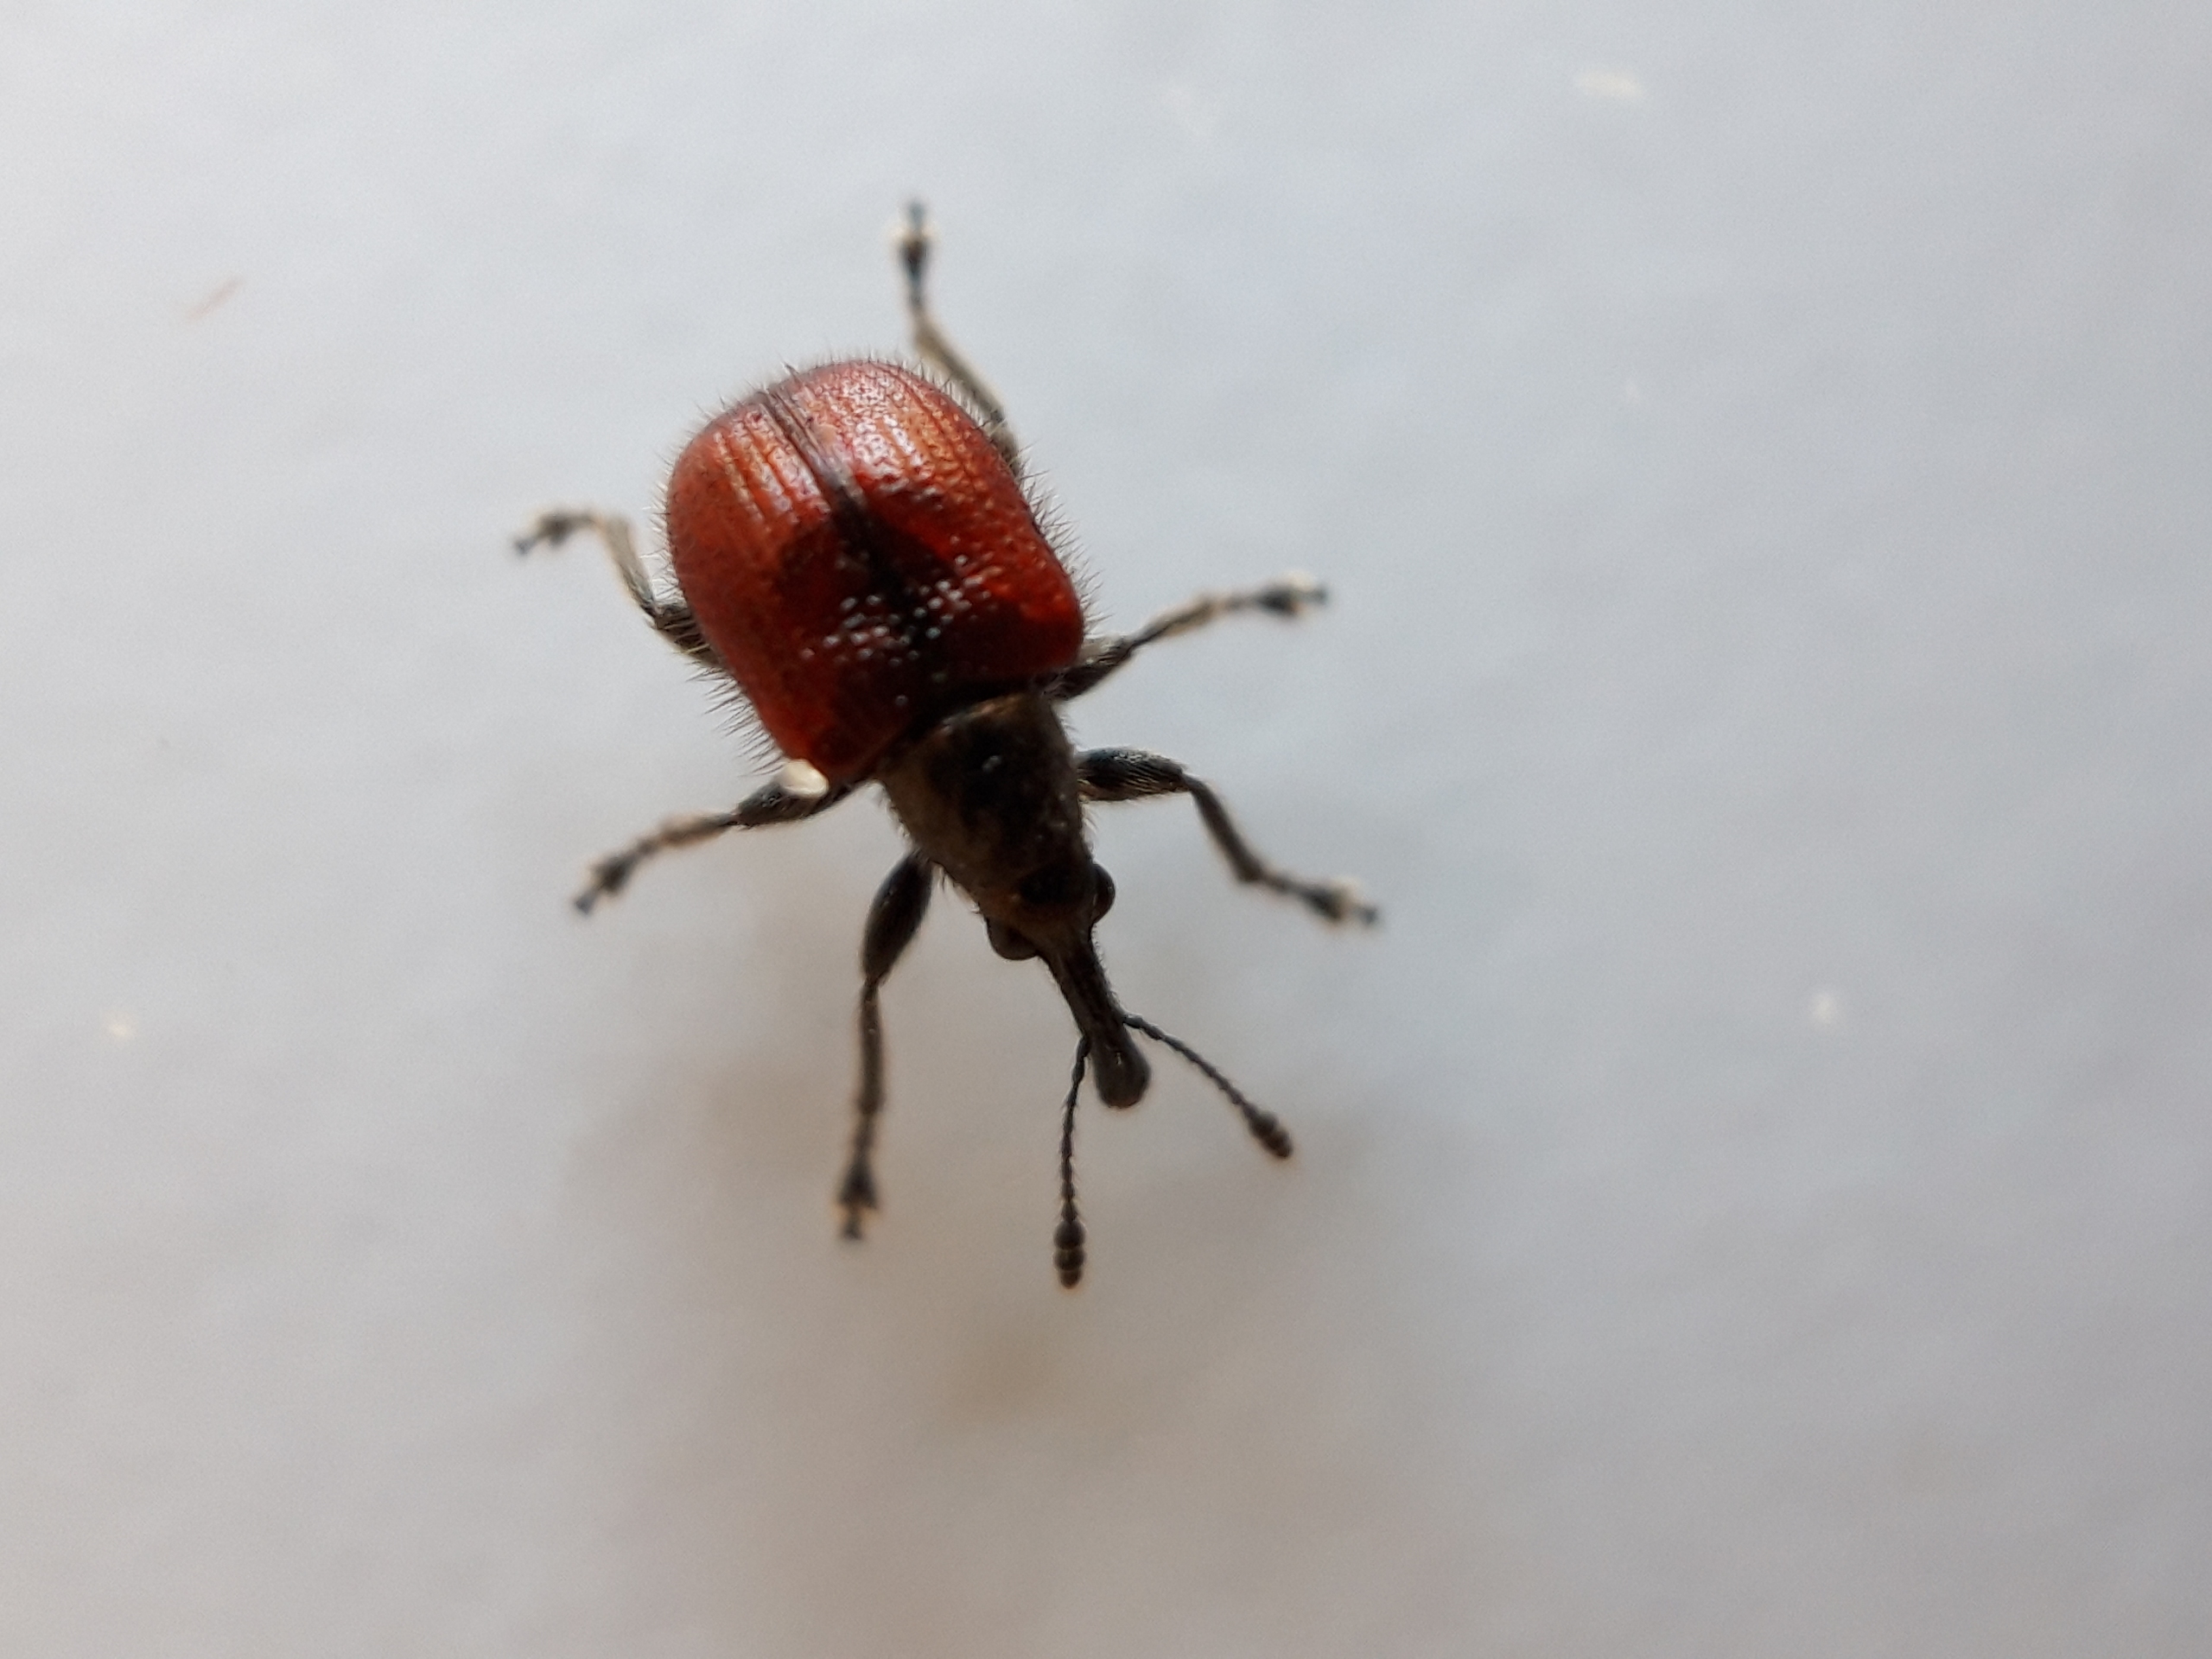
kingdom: Animalia
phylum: Arthropoda
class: Insecta
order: Coleoptera
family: Rhynchitidae
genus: Tatianaerhynchites
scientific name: Tatianaerhynchites aequatus
